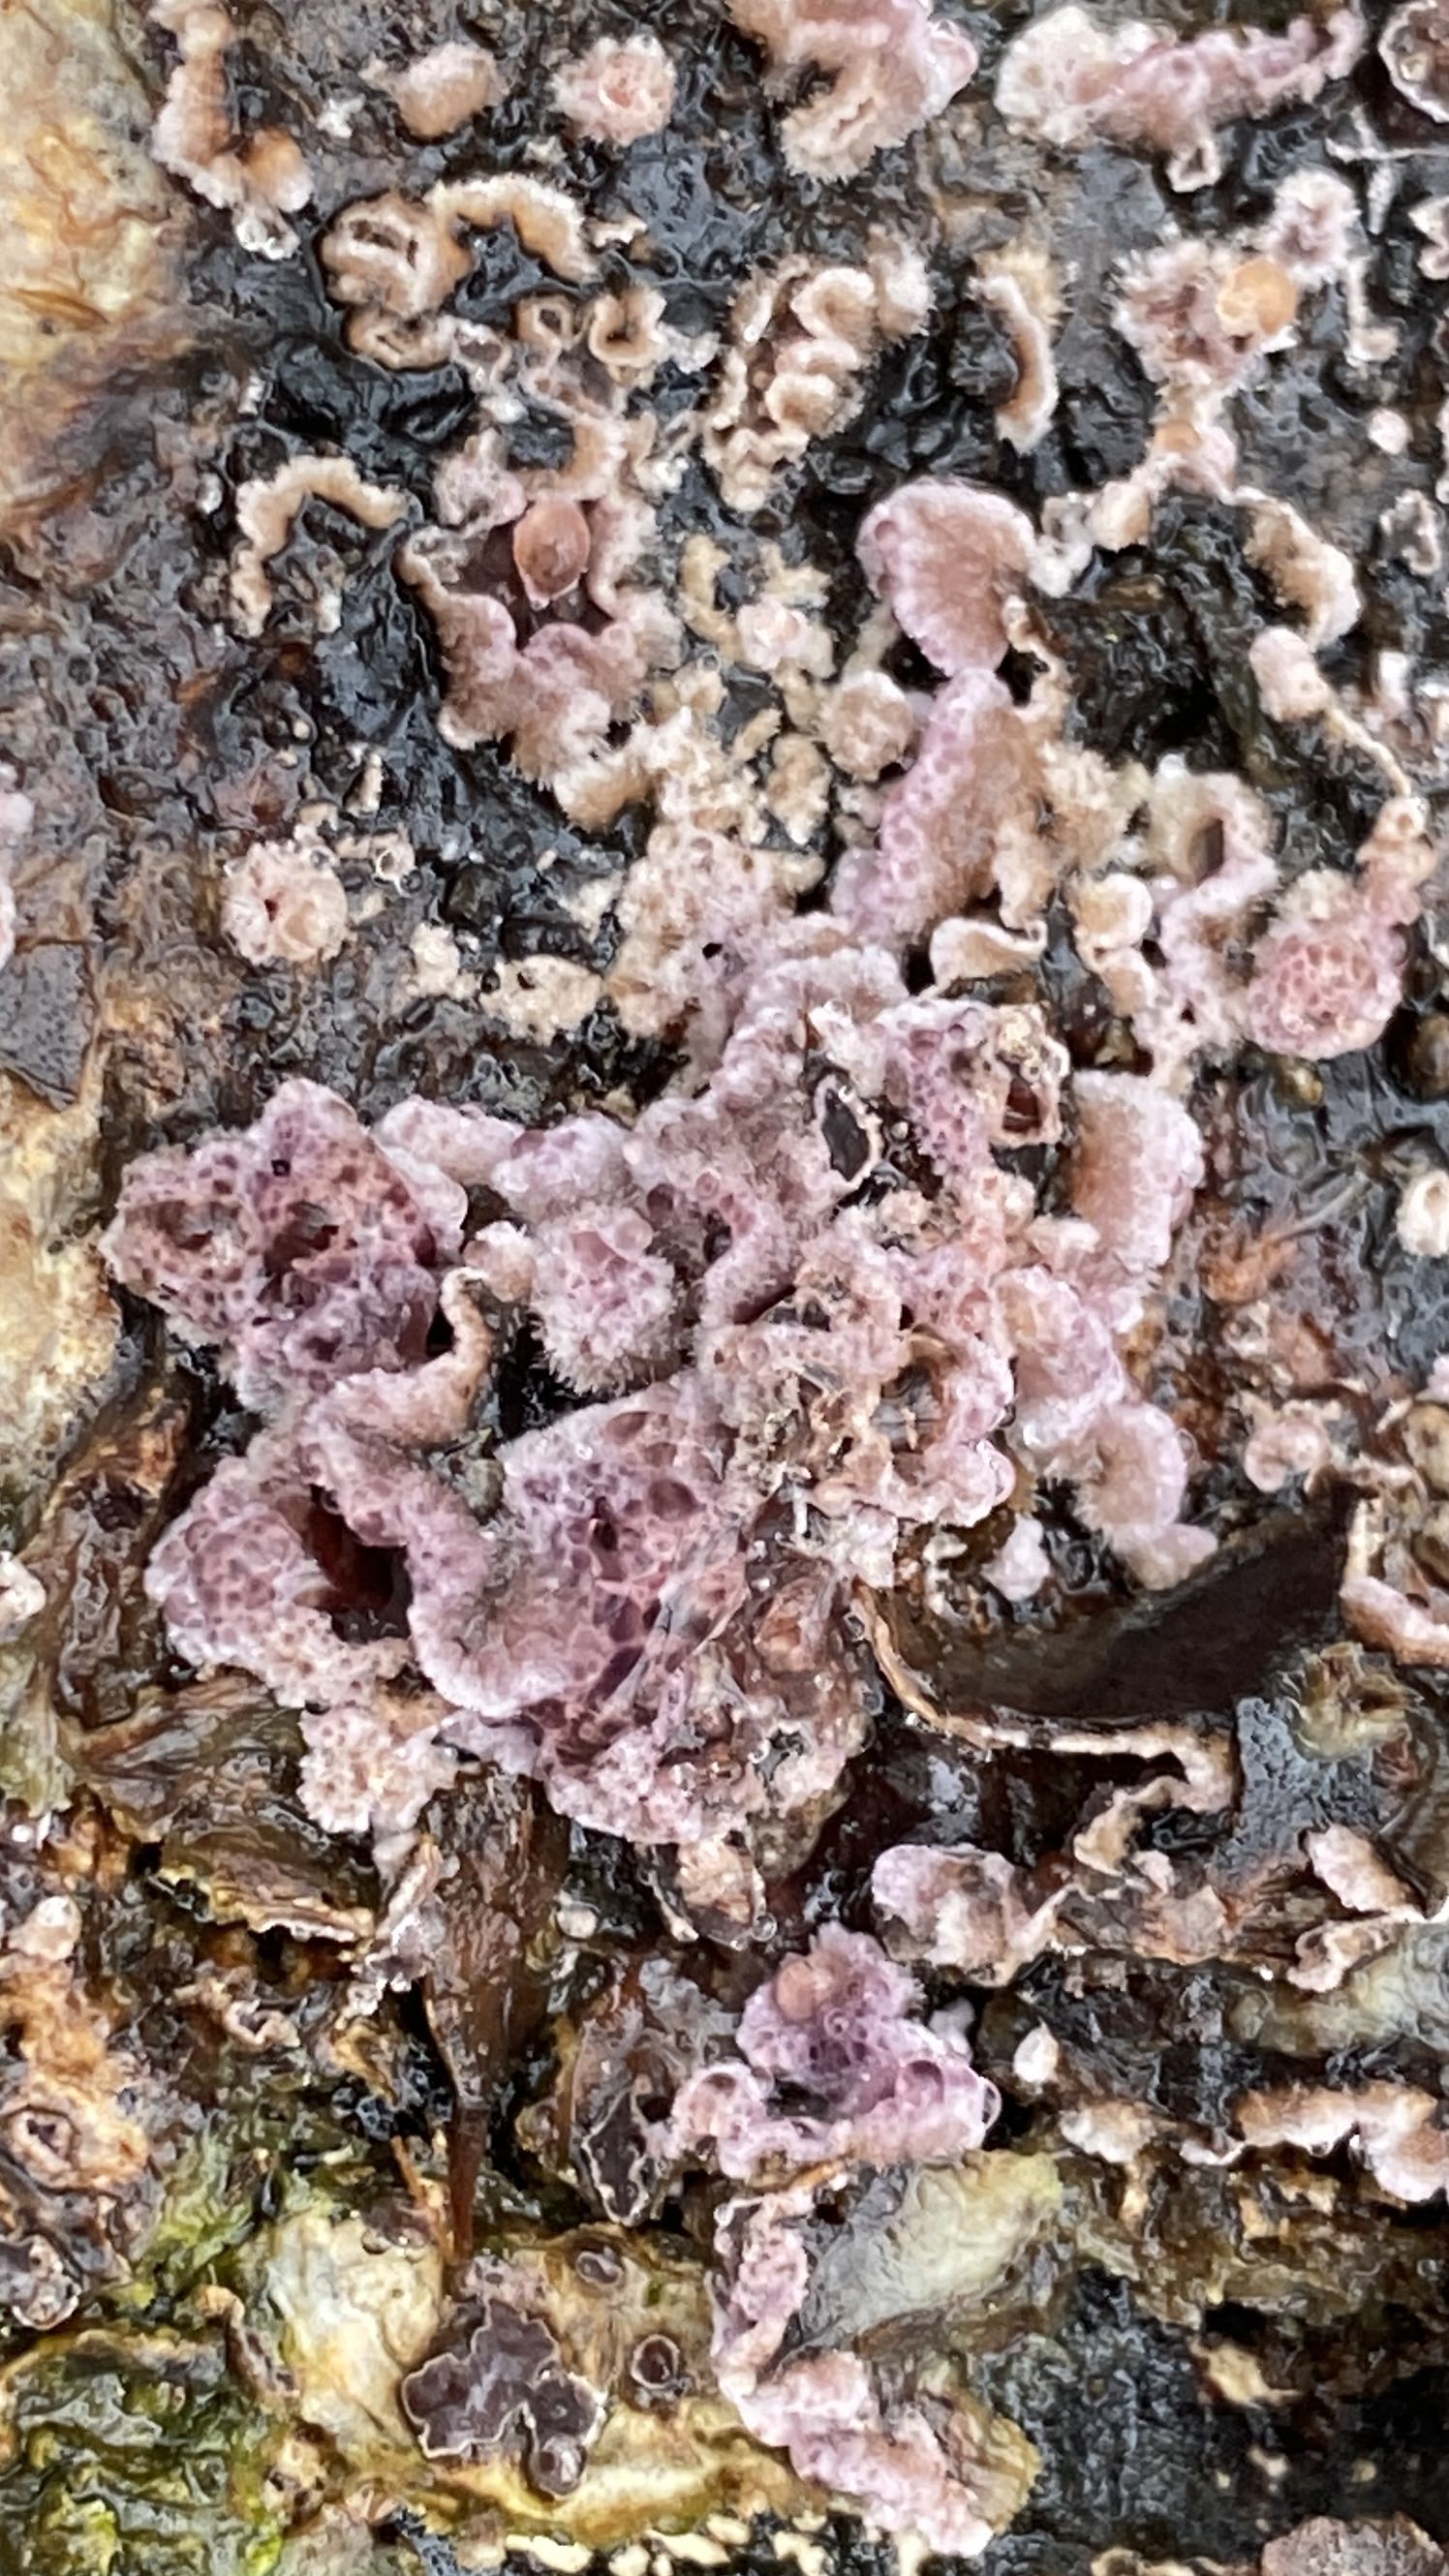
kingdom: Fungi
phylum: Basidiomycota
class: Agaricomycetes
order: Agaricales
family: Cyphellaceae
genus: Chondrostereum
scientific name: Chondrostereum purpureum
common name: purpurlædersvamp
